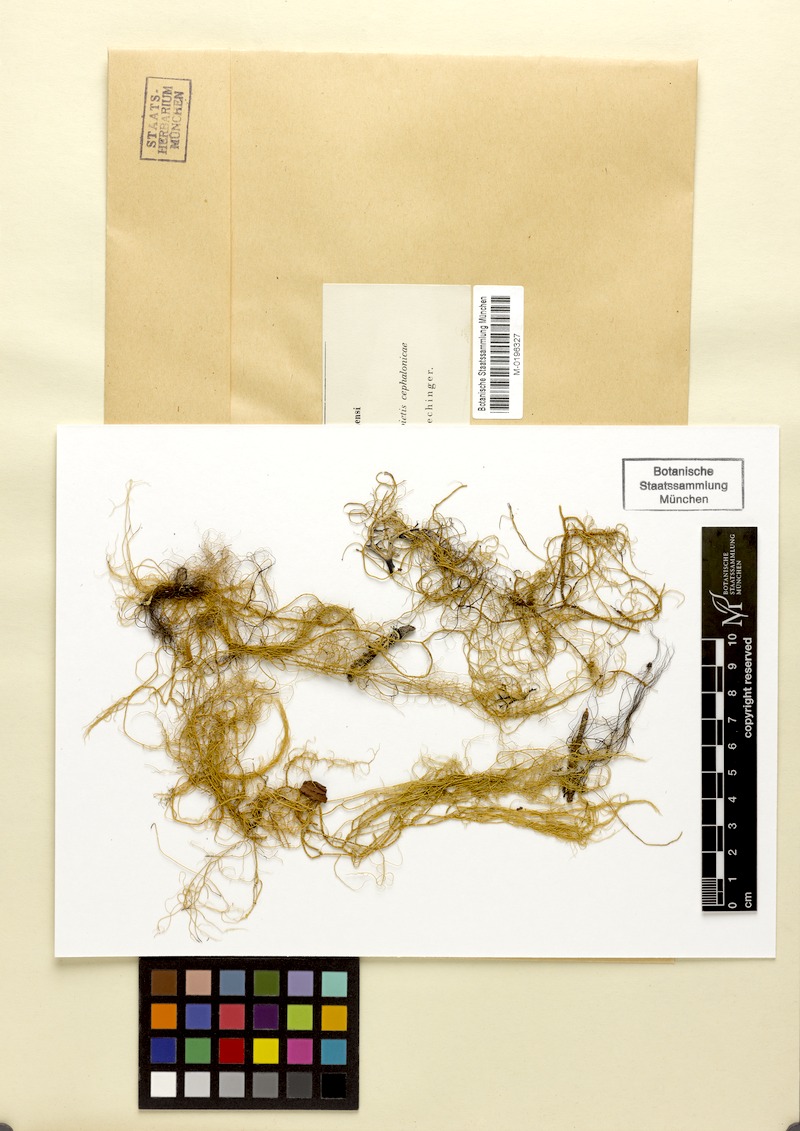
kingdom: Fungi
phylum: Ascomycota
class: Lecanoromycetes
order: Lecanorales
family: Parmeliaceae
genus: Usnea
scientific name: Usnea pendulina
